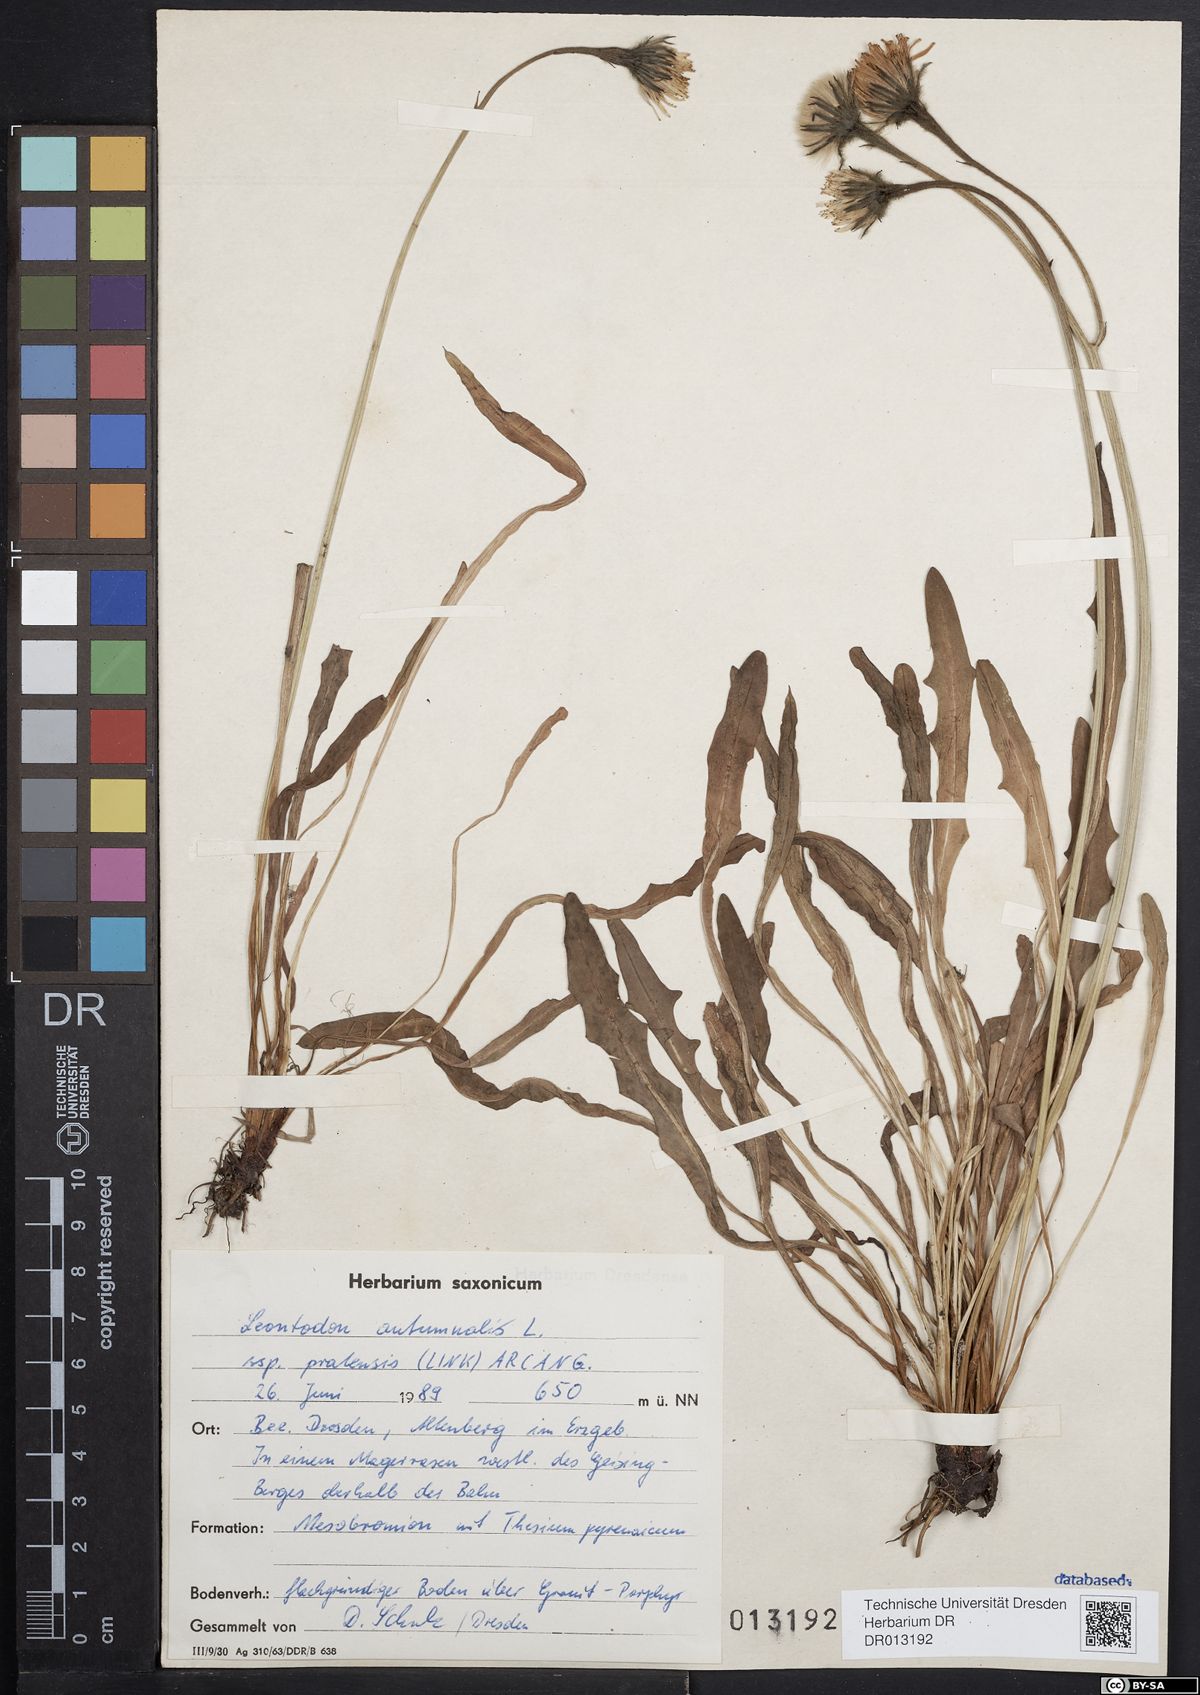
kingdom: Plantae
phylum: Tracheophyta
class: Magnoliopsida
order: Asterales
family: Asteraceae
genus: Scorzoneroides
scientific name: Scorzoneroides autumnalis
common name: Autumn hawkbit
